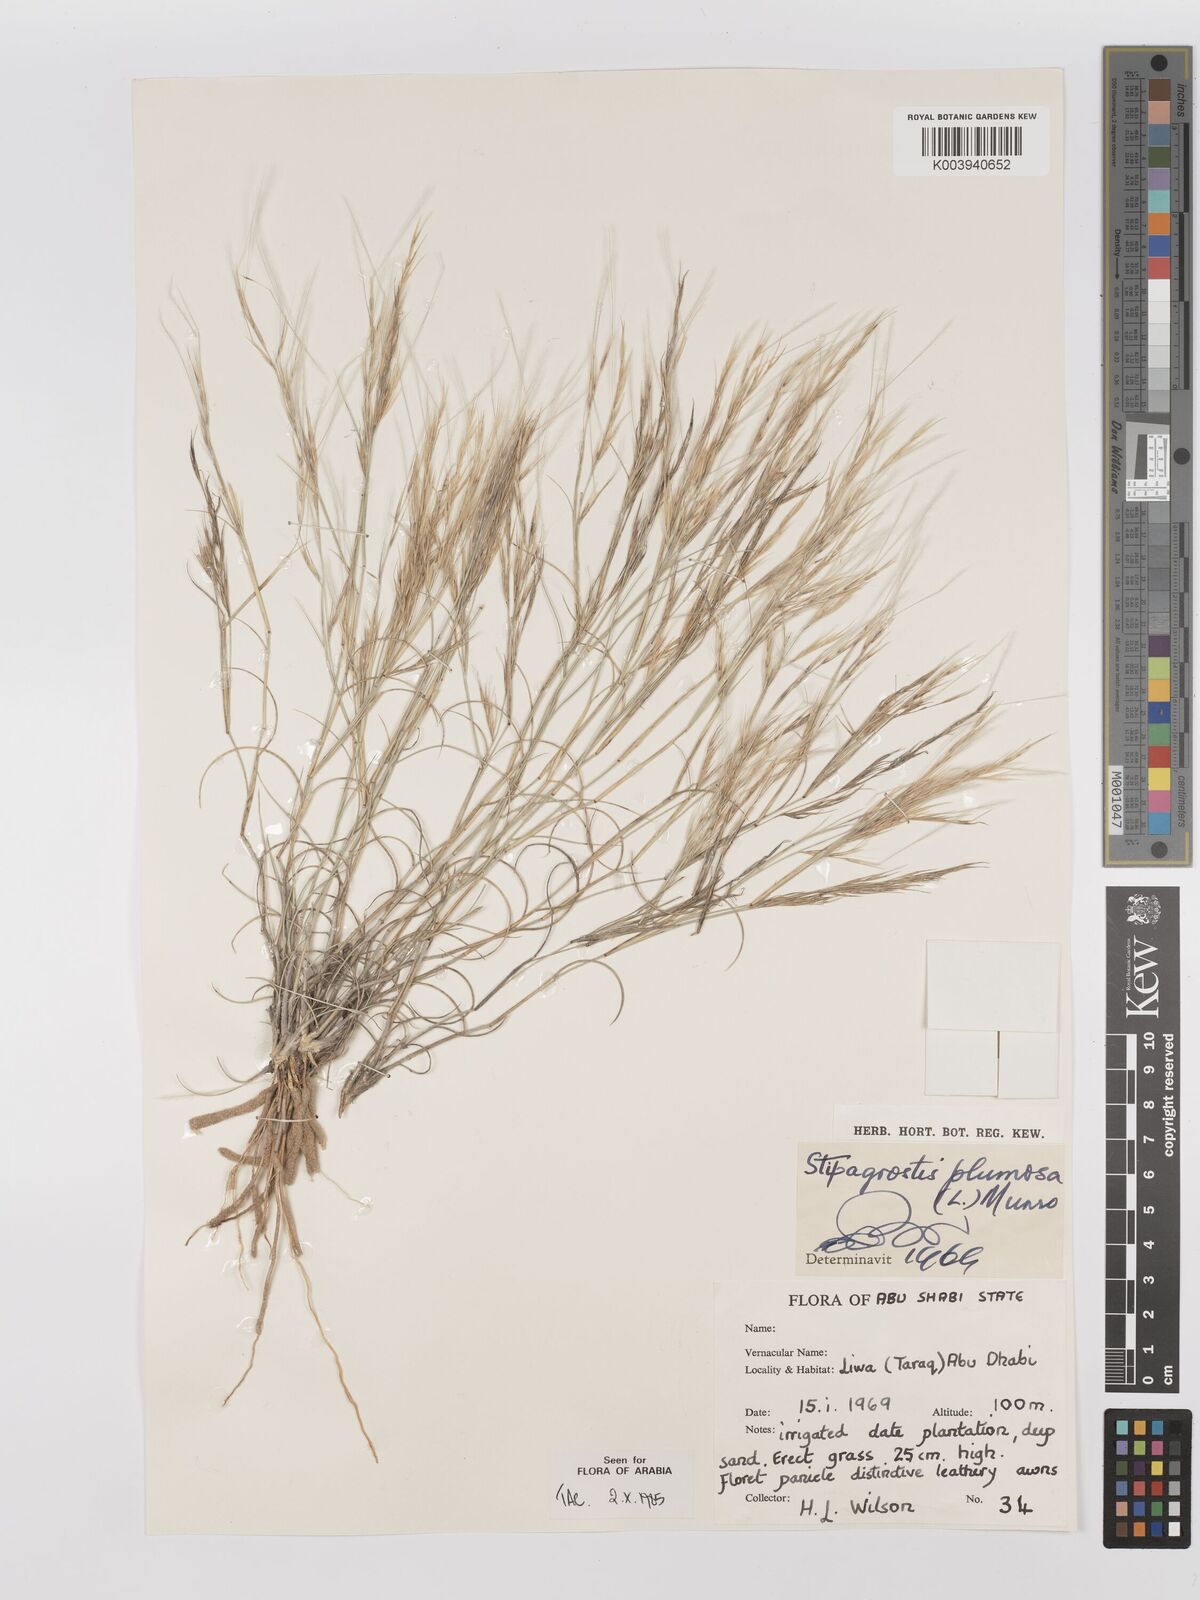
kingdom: Plantae
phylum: Tracheophyta
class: Liliopsida
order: Poales
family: Poaceae
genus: Stipagrostis
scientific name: Stipagrostis plumosa
